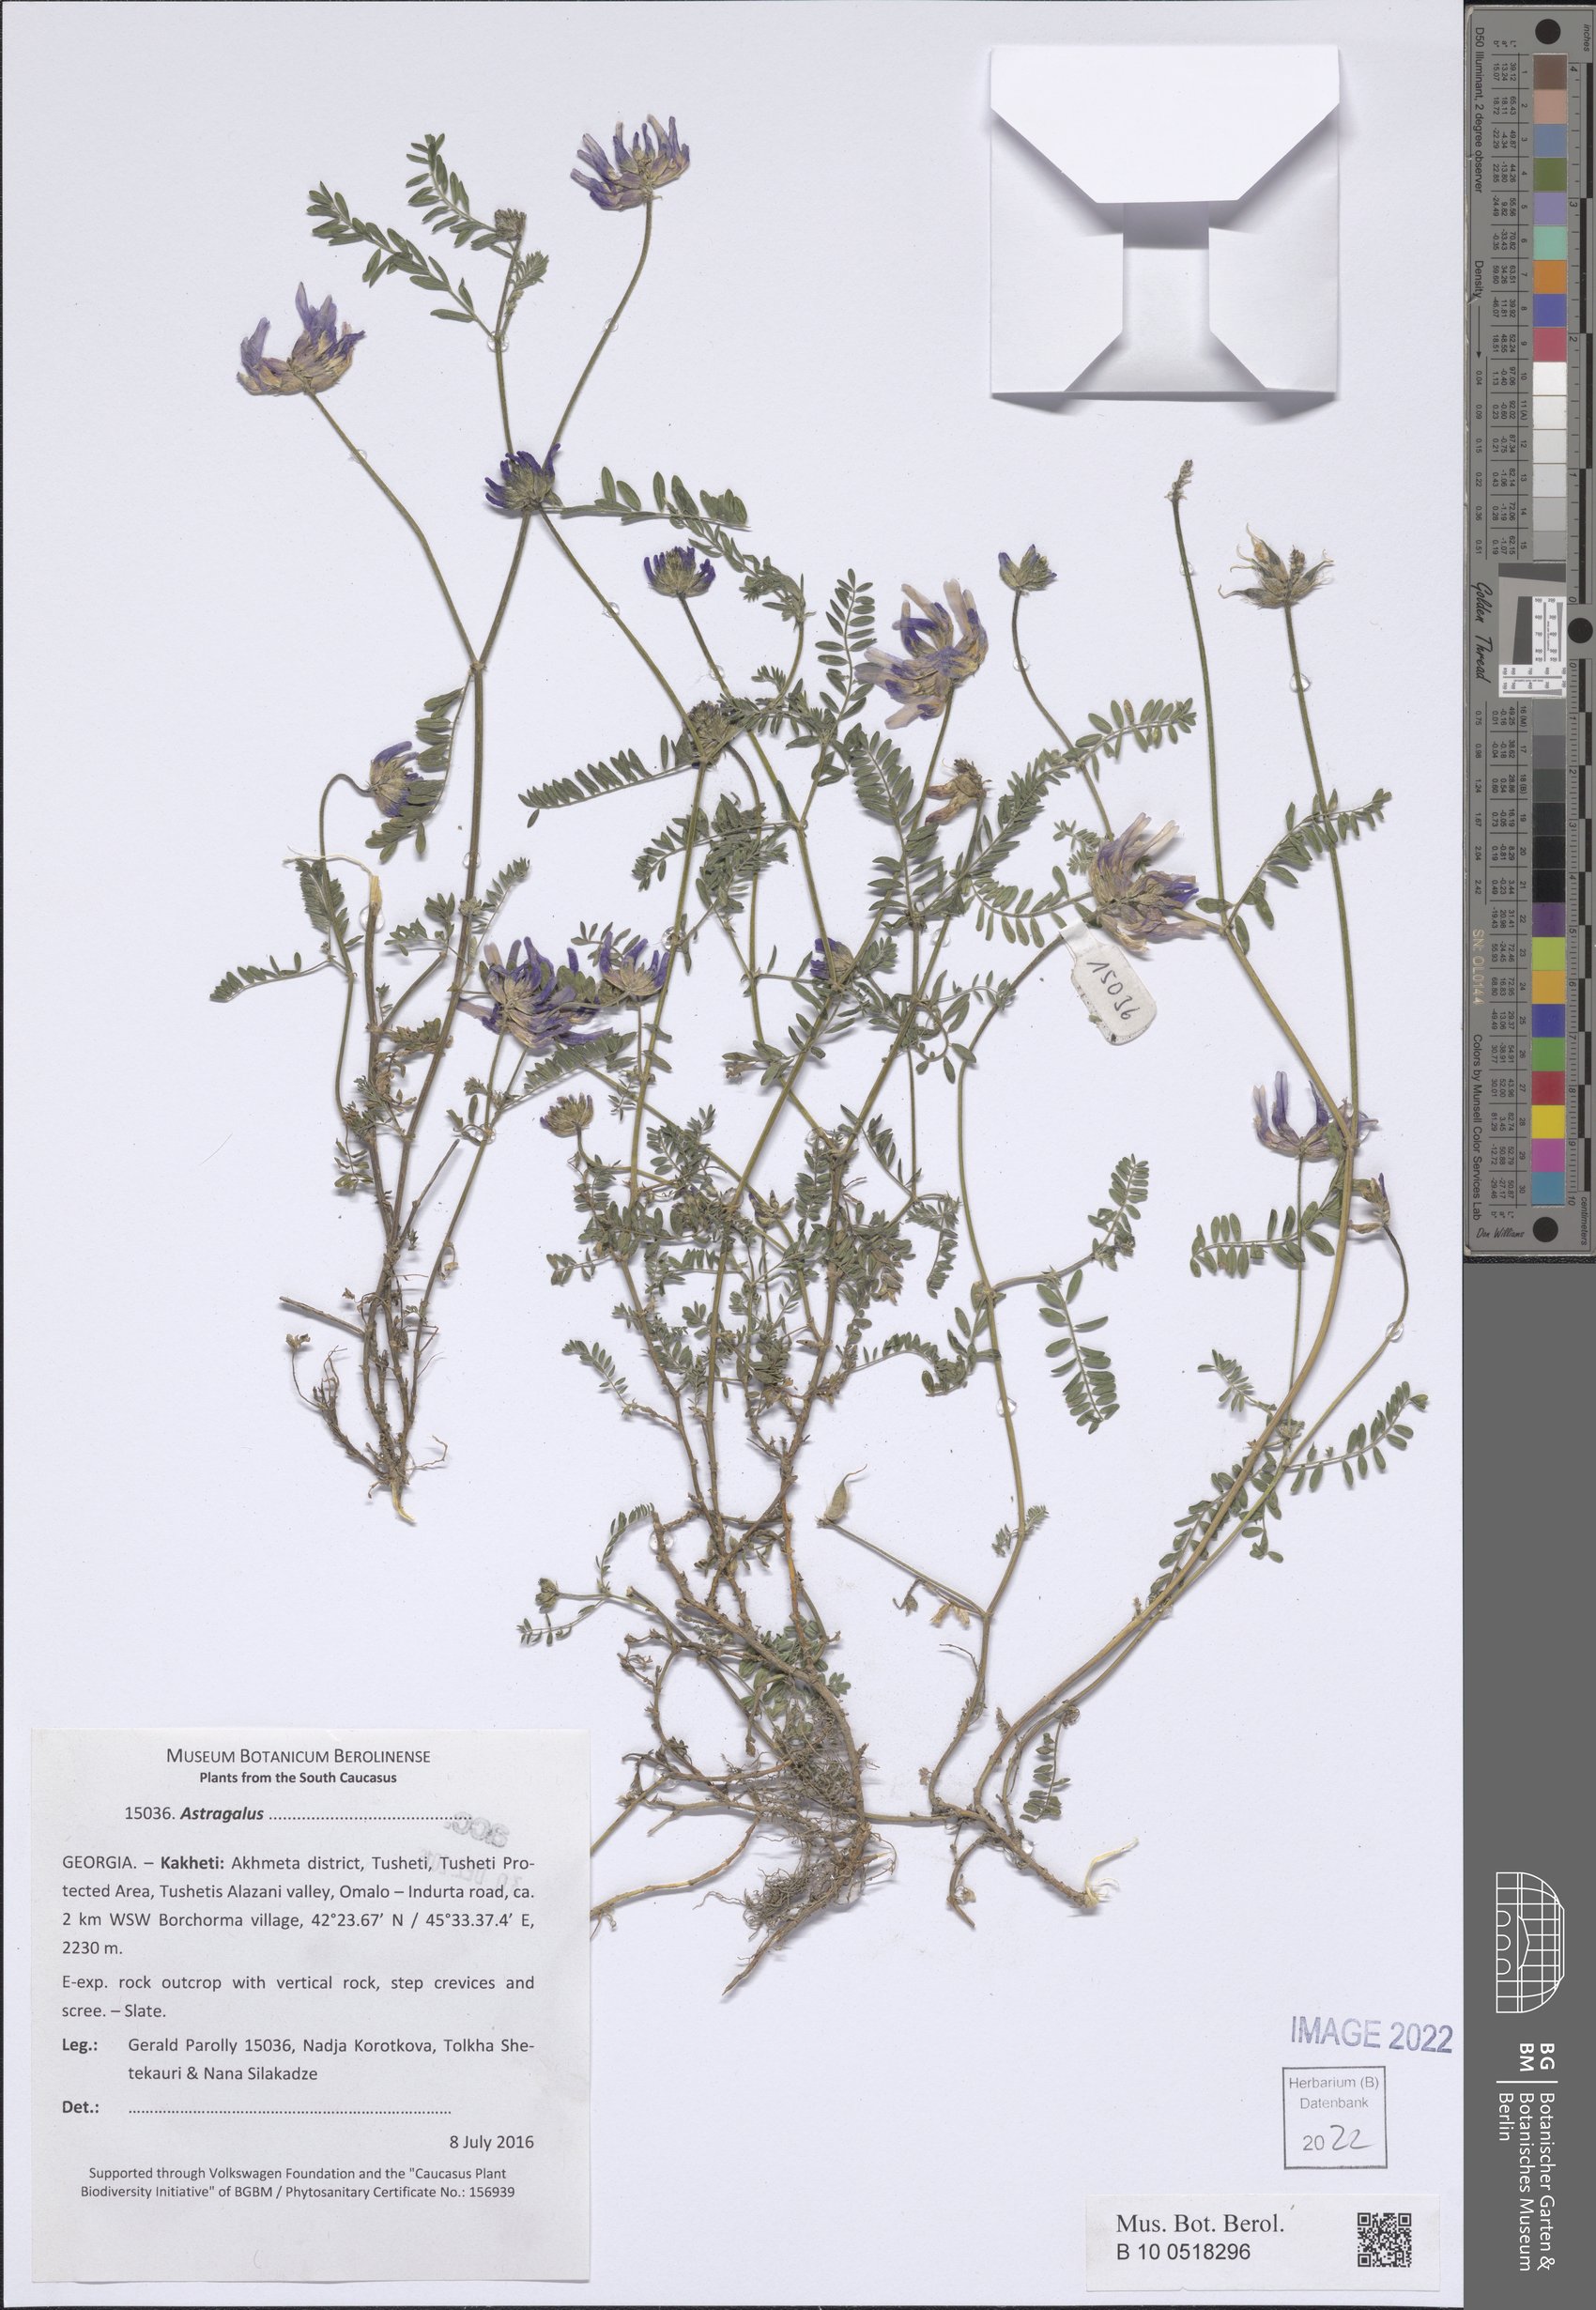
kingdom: Plantae
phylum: Tracheophyta
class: Magnoliopsida
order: Fabales
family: Fabaceae
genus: Astragalus
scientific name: Astragalus
